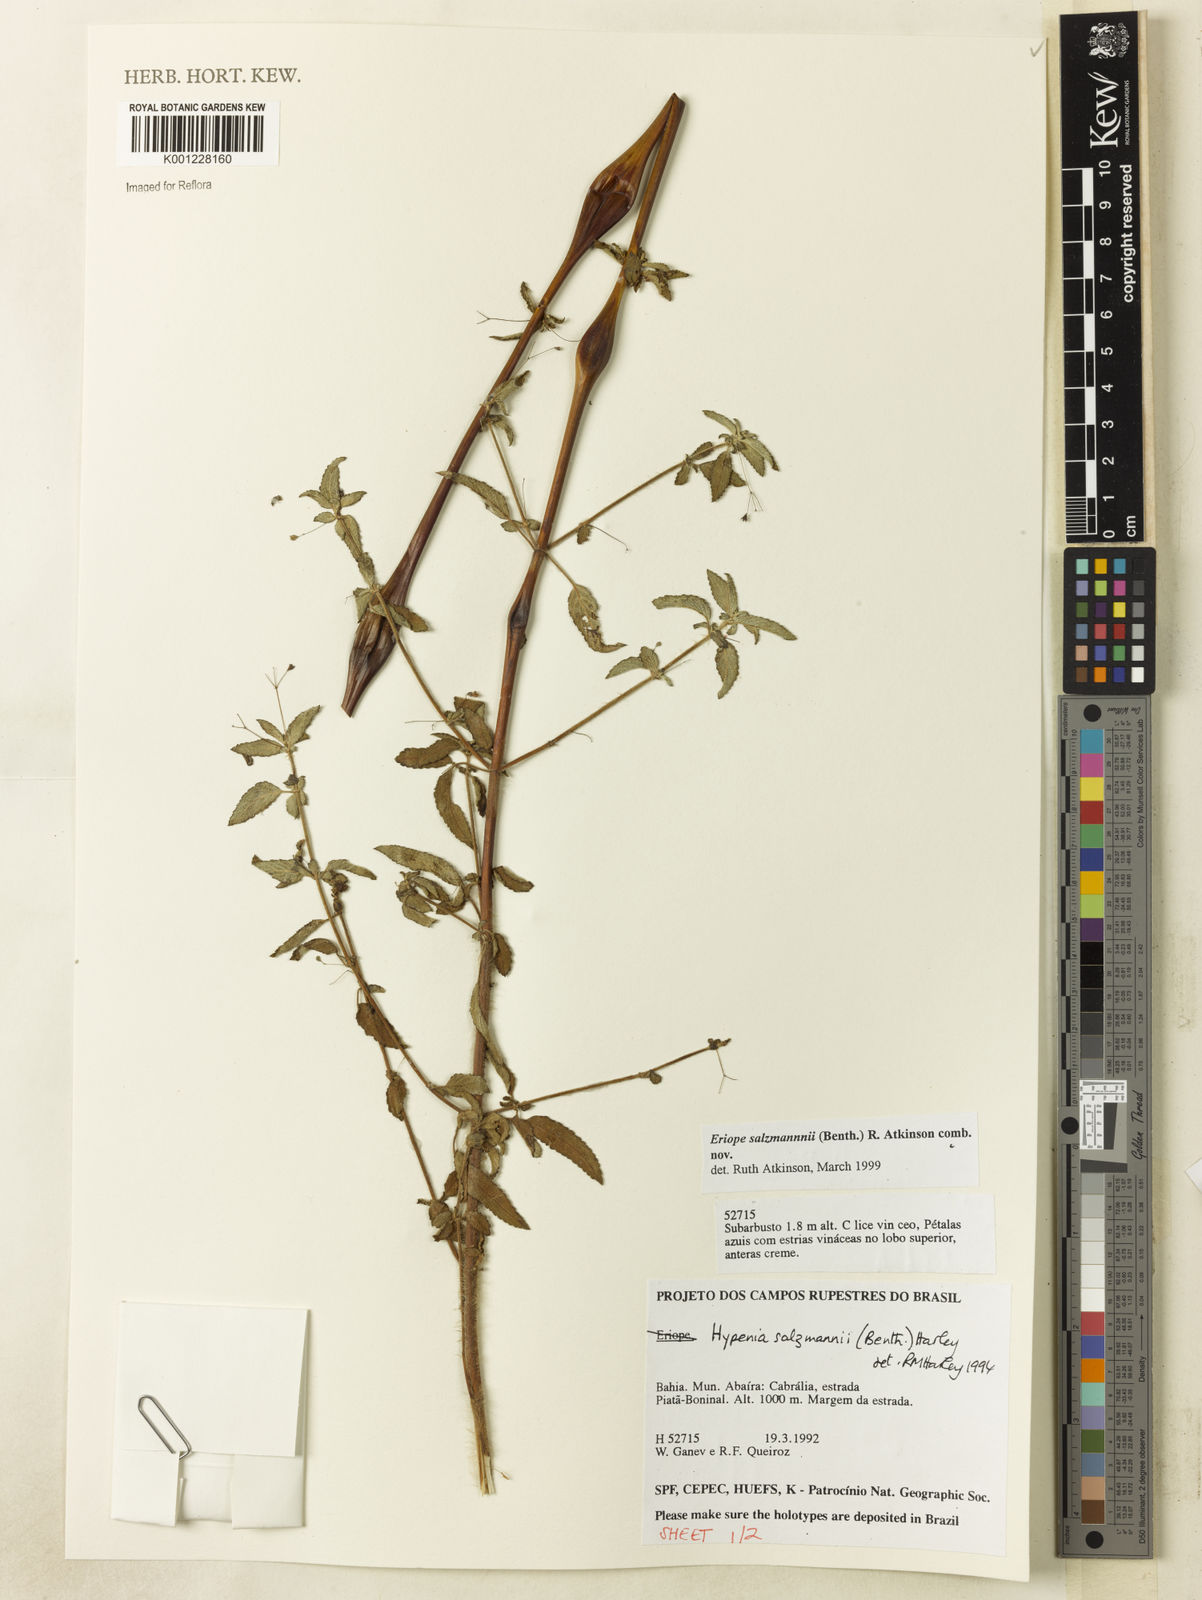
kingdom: Plantae
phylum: Tracheophyta
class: Magnoliopsida
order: Lamiales
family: Lamiaceae
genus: Hypenia
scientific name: Hypenia salzmannii
